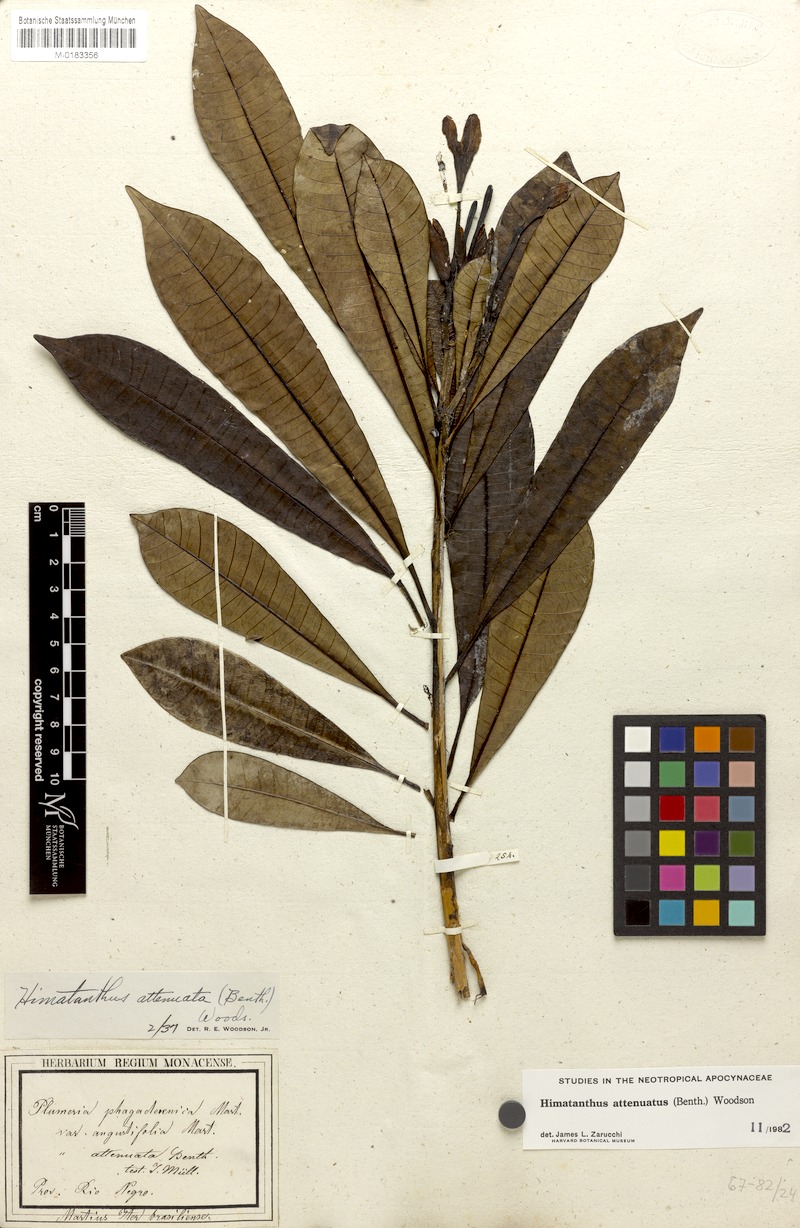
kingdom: Plantae
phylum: Tracheophyta
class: Magnoliopsida
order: Gentianales
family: Apocynaceae
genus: Himatanthus
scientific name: Himatanthus attenuatus
